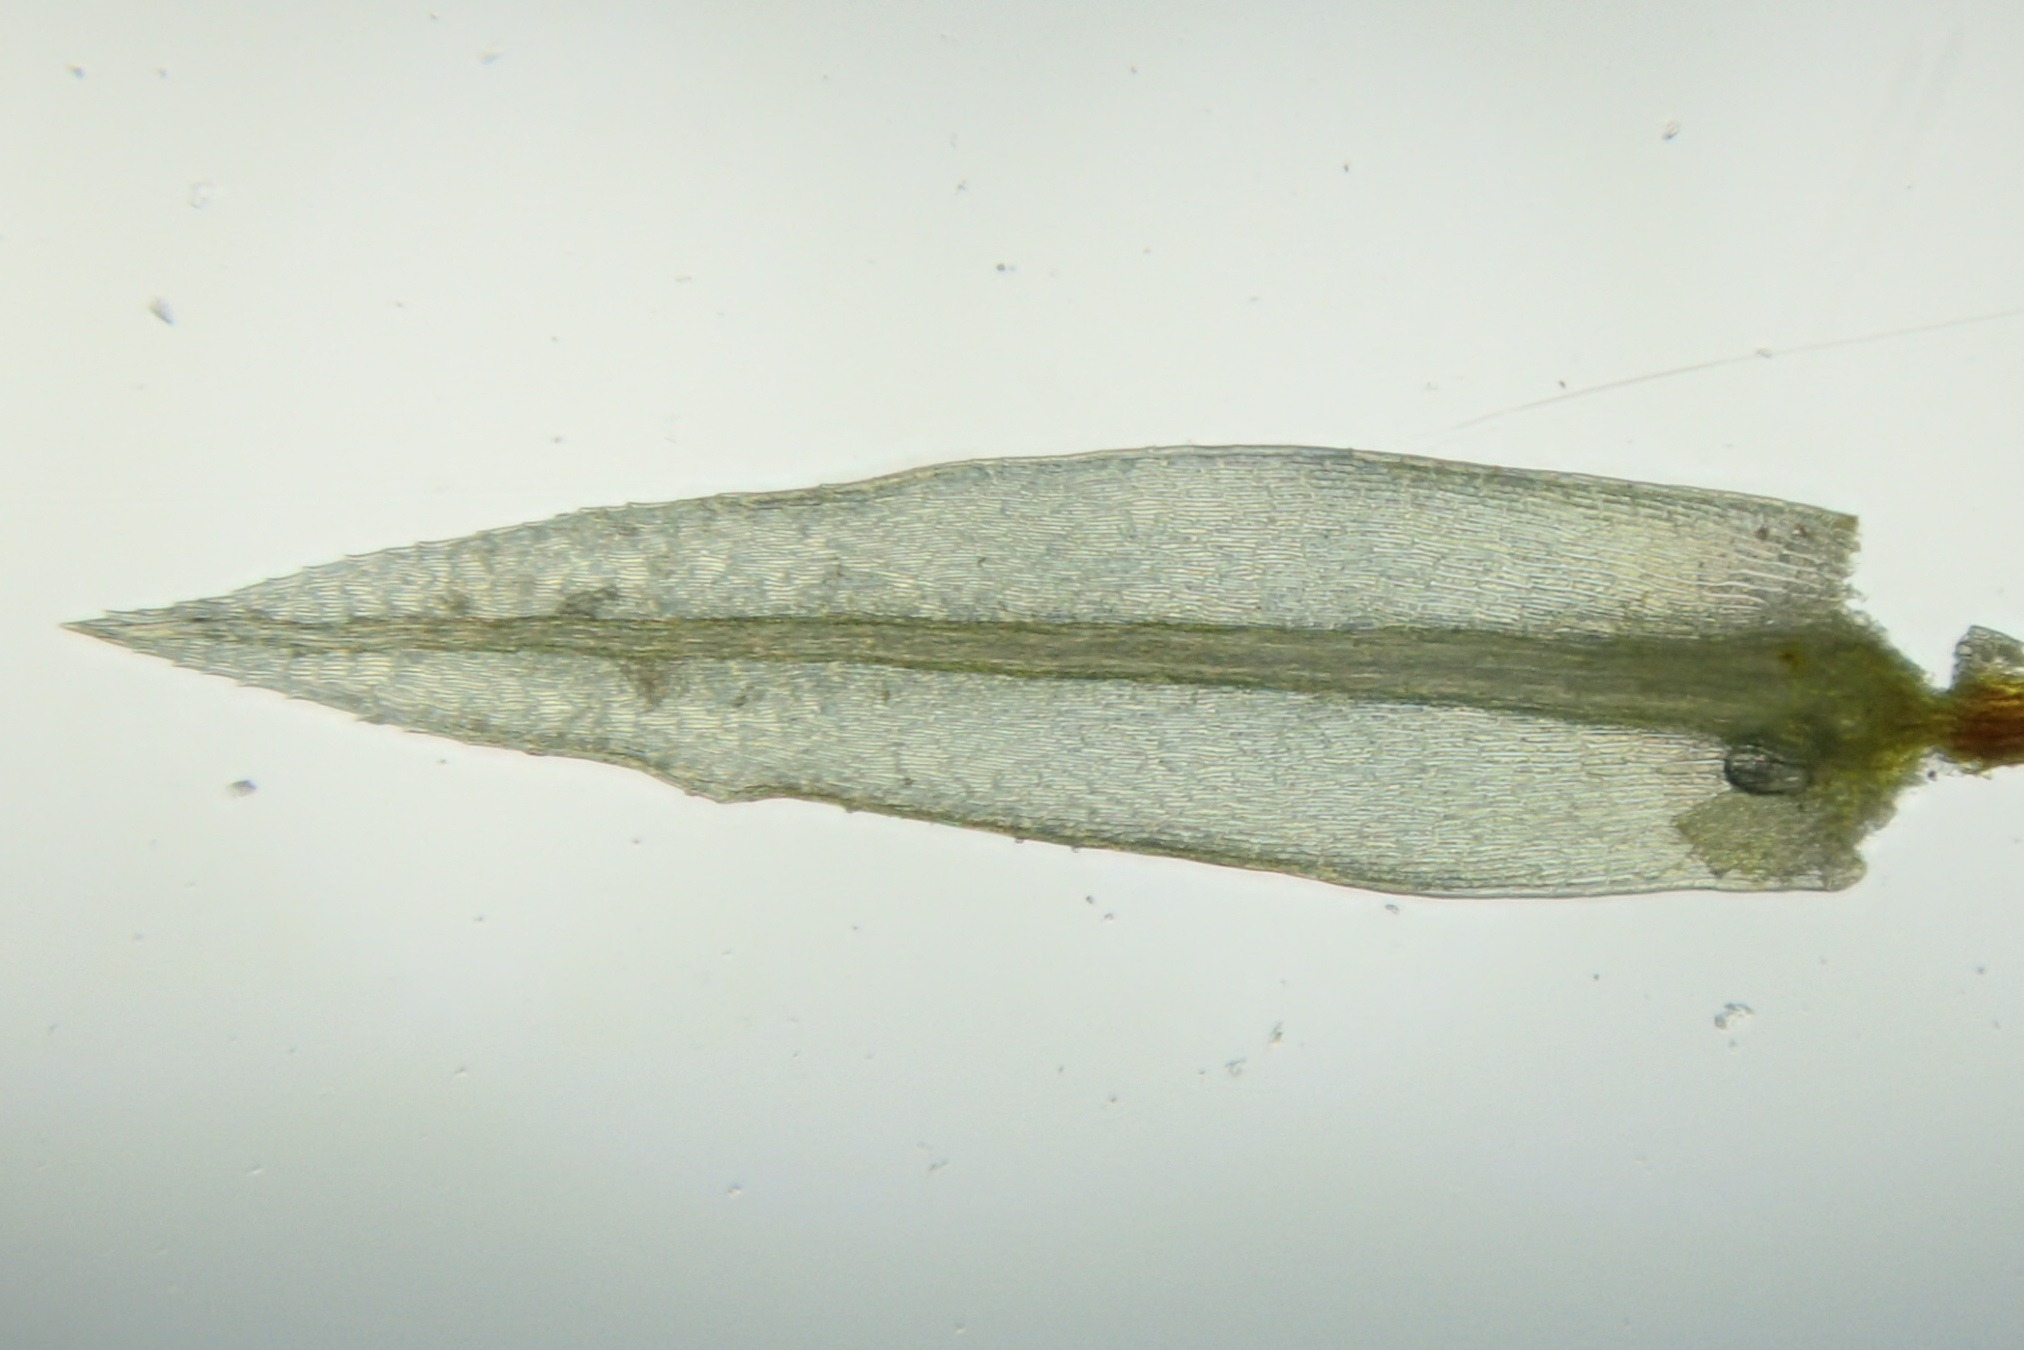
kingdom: Plantae
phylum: Bryophyta
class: Bryopsida
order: Bryales
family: Mniaceae
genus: Pohlia
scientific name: Pohlia nutans
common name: Almindelig nikkemos
